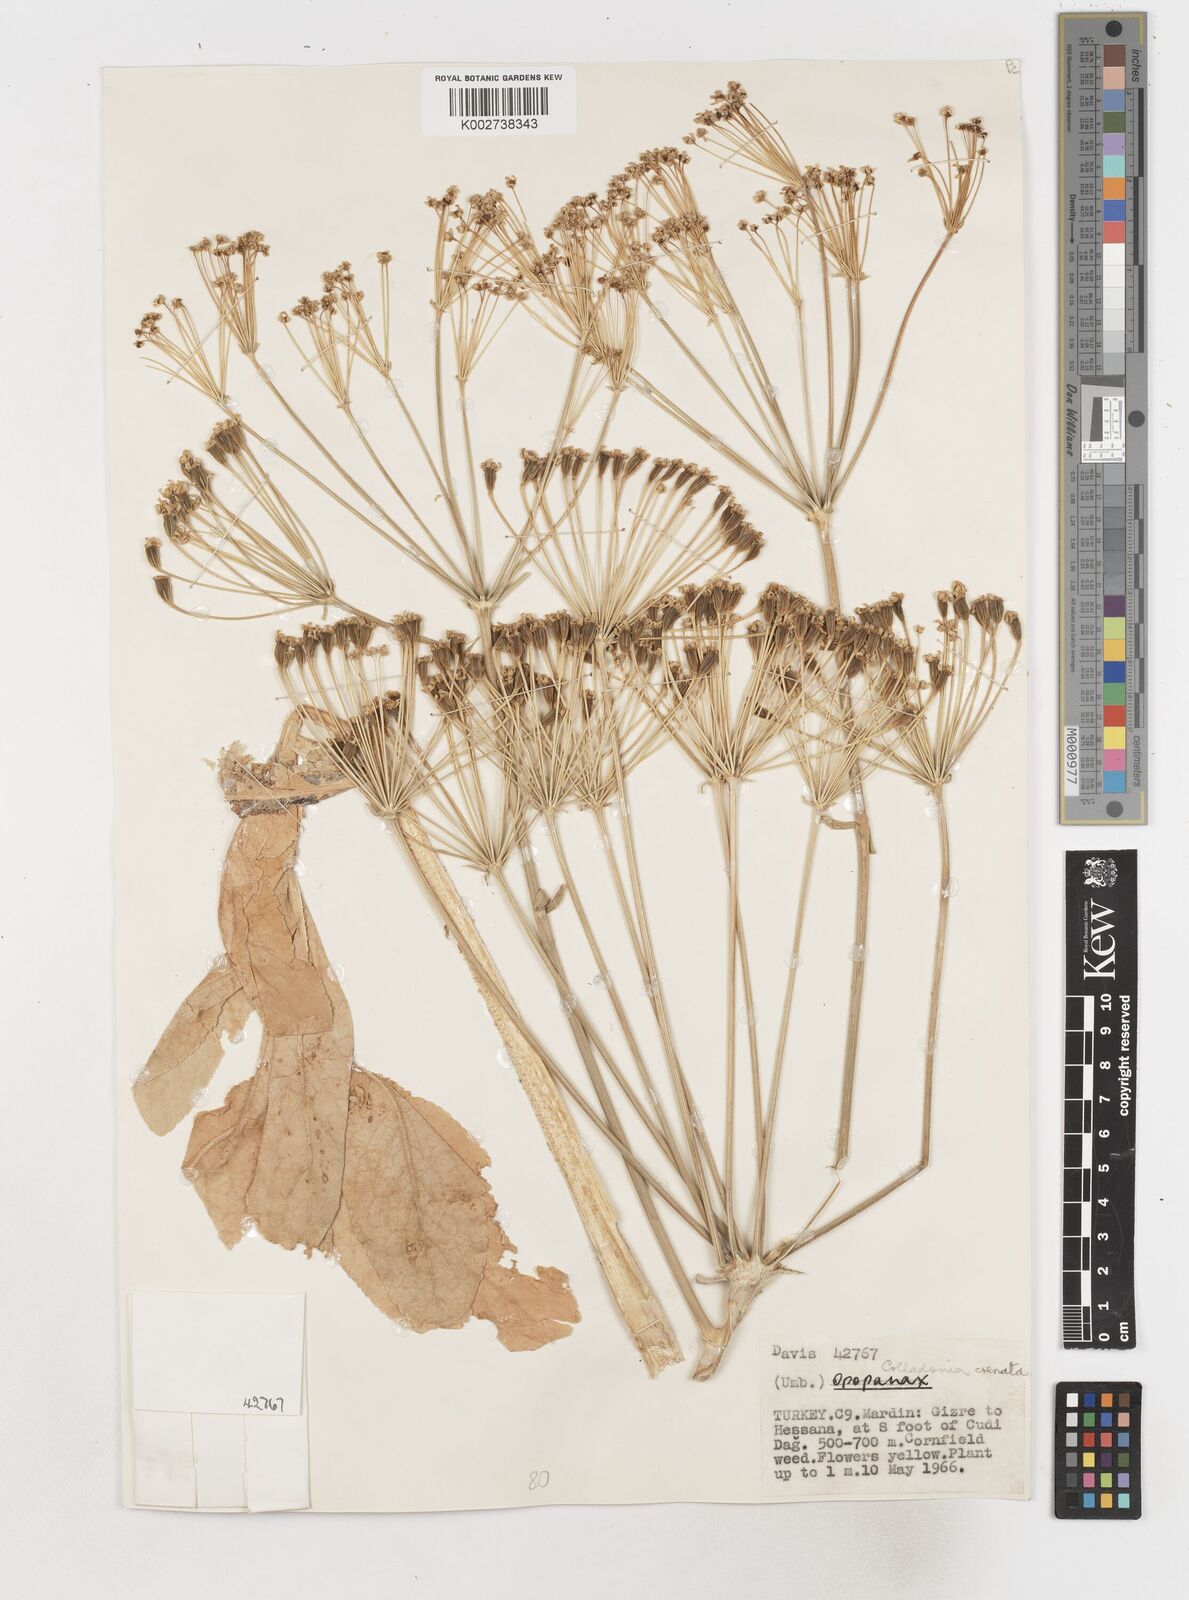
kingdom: Plantae
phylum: Tracheophyta
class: Magnoliopsida
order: Apiales
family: Apiaceae
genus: Heptaptera
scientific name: Heptaptera anisoptera
